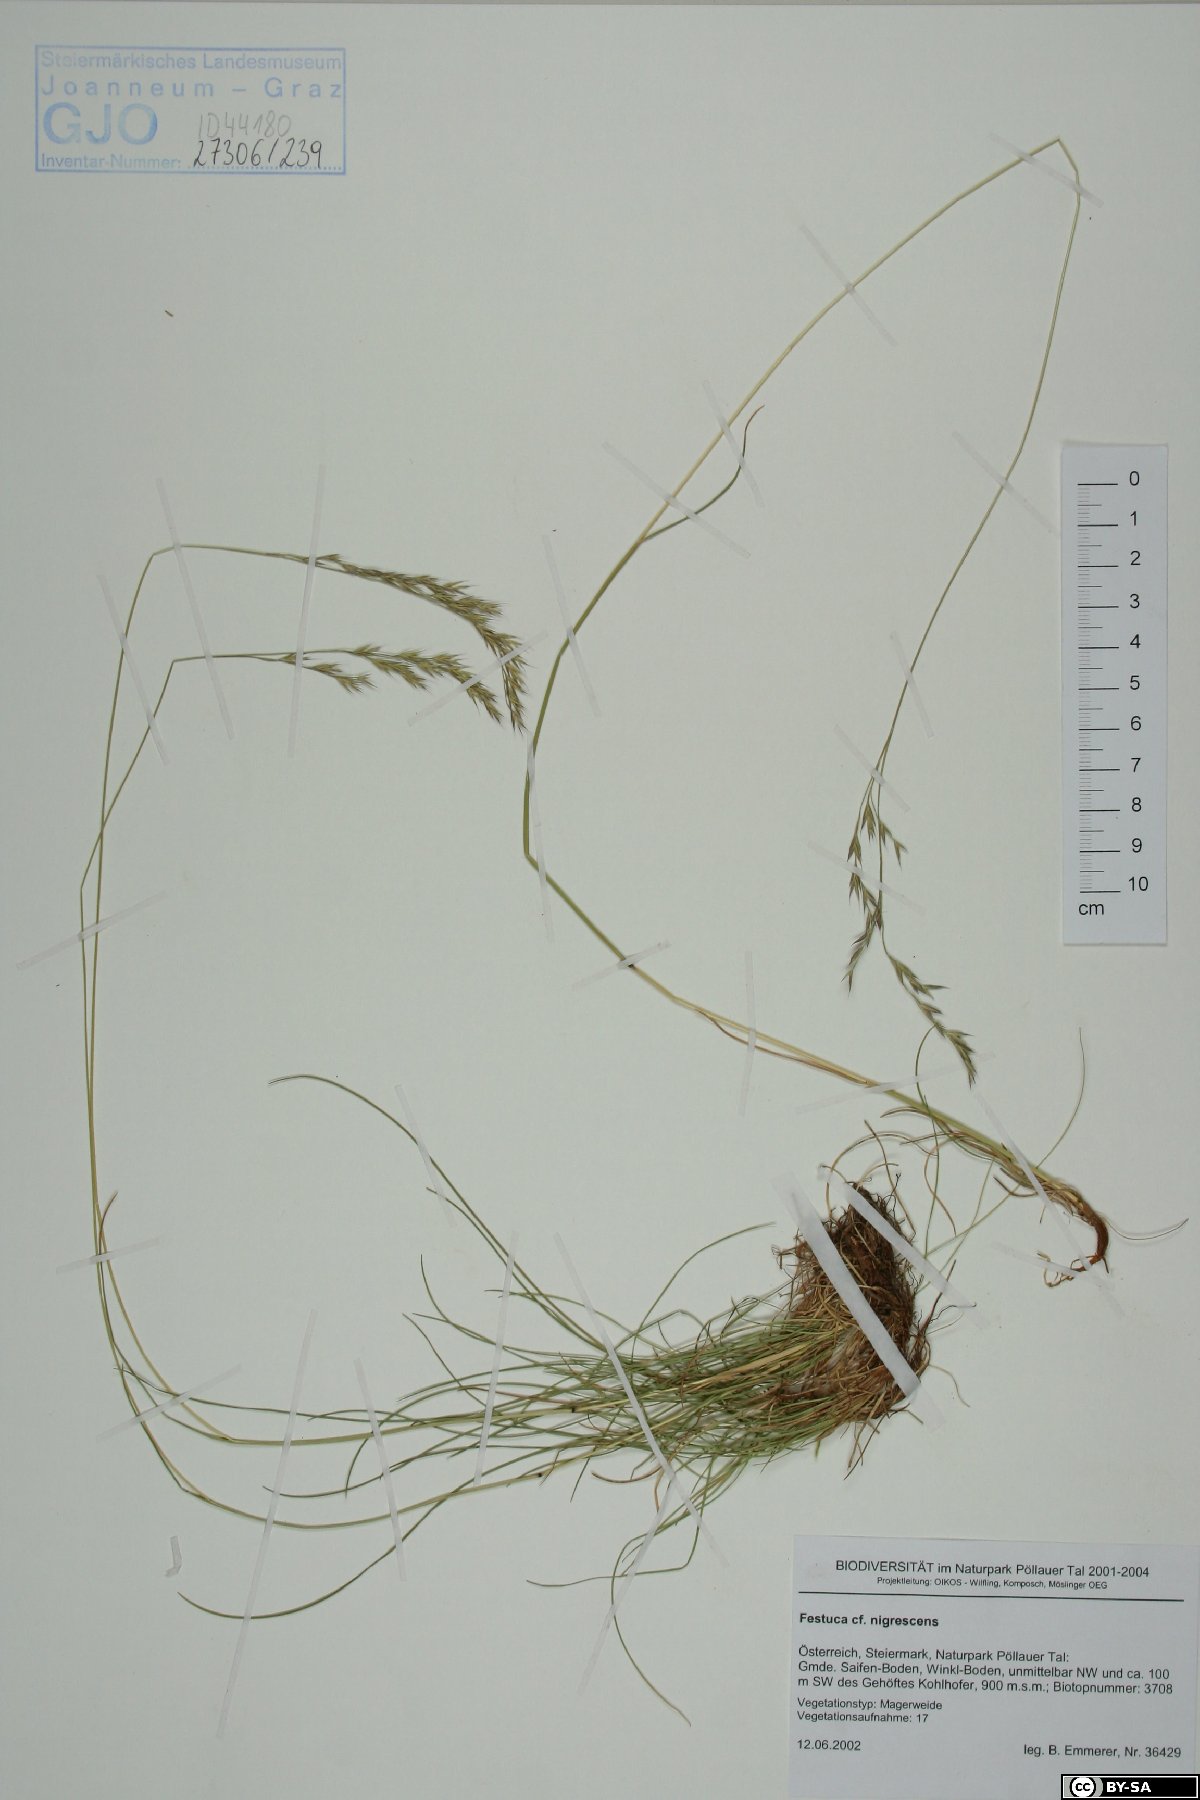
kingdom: Plantae
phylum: Tracheophyta
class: Liliopsida
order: Poales
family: Poaceae
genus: Festuca
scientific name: Festuca nigrescens
